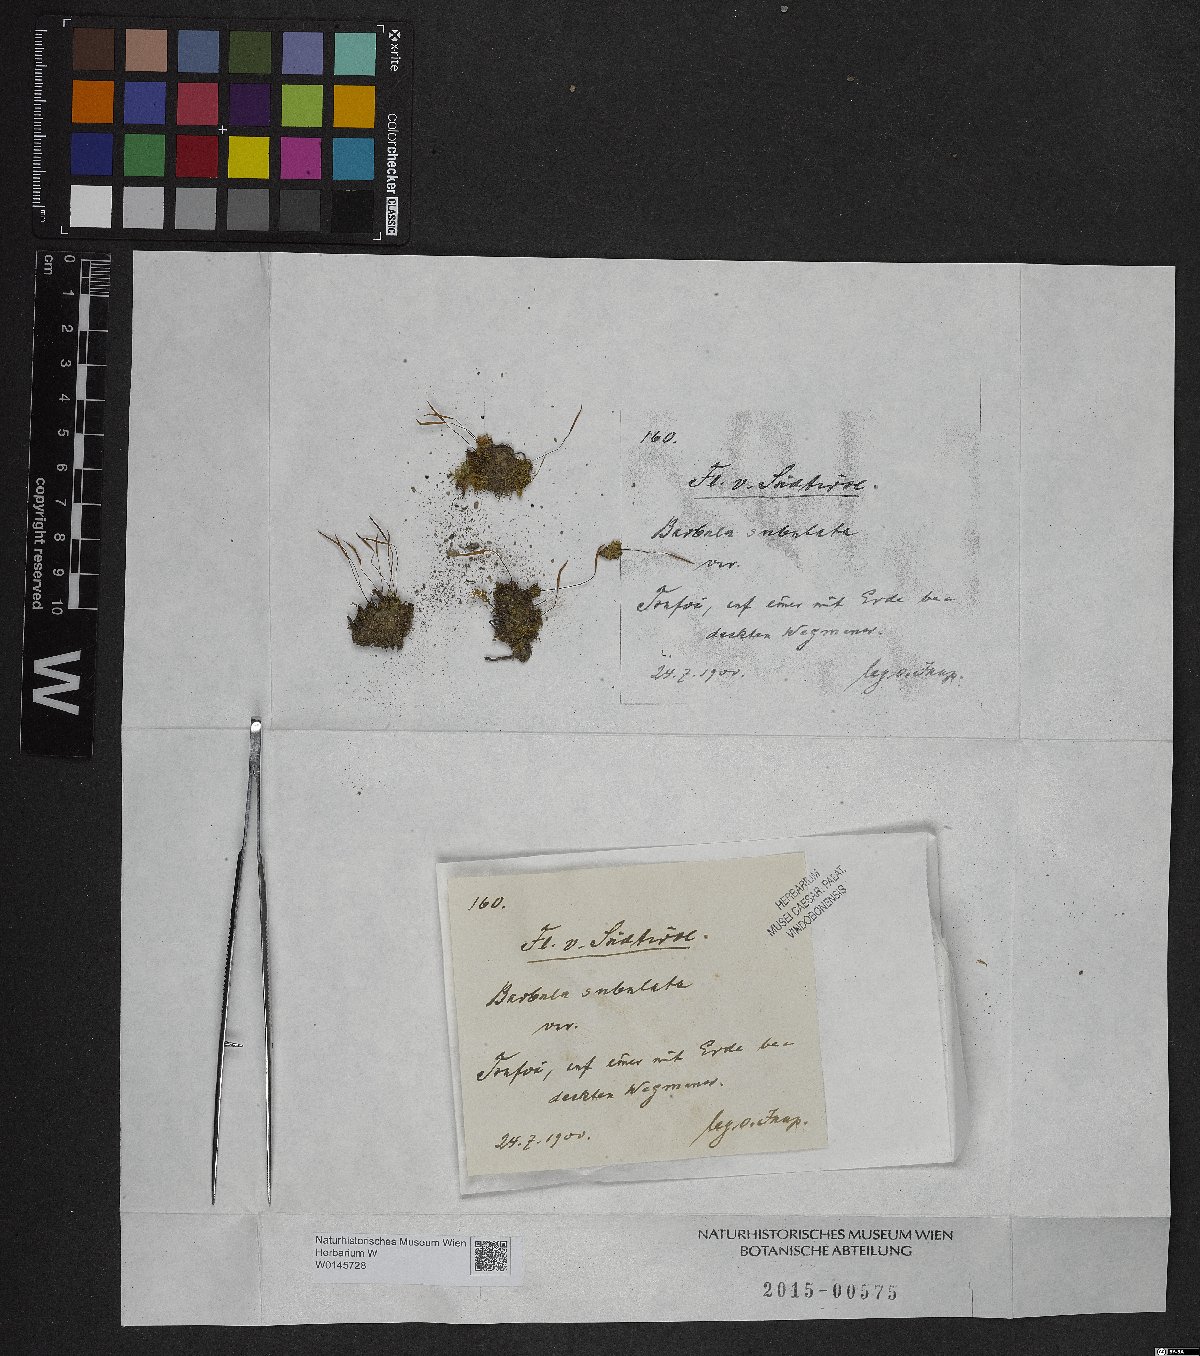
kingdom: Plantae
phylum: Bryophyta
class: Bryopsida
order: Pottiales
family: Pottiaceae
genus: Tortula
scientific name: Tortula subulata
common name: Upright screw-moss
